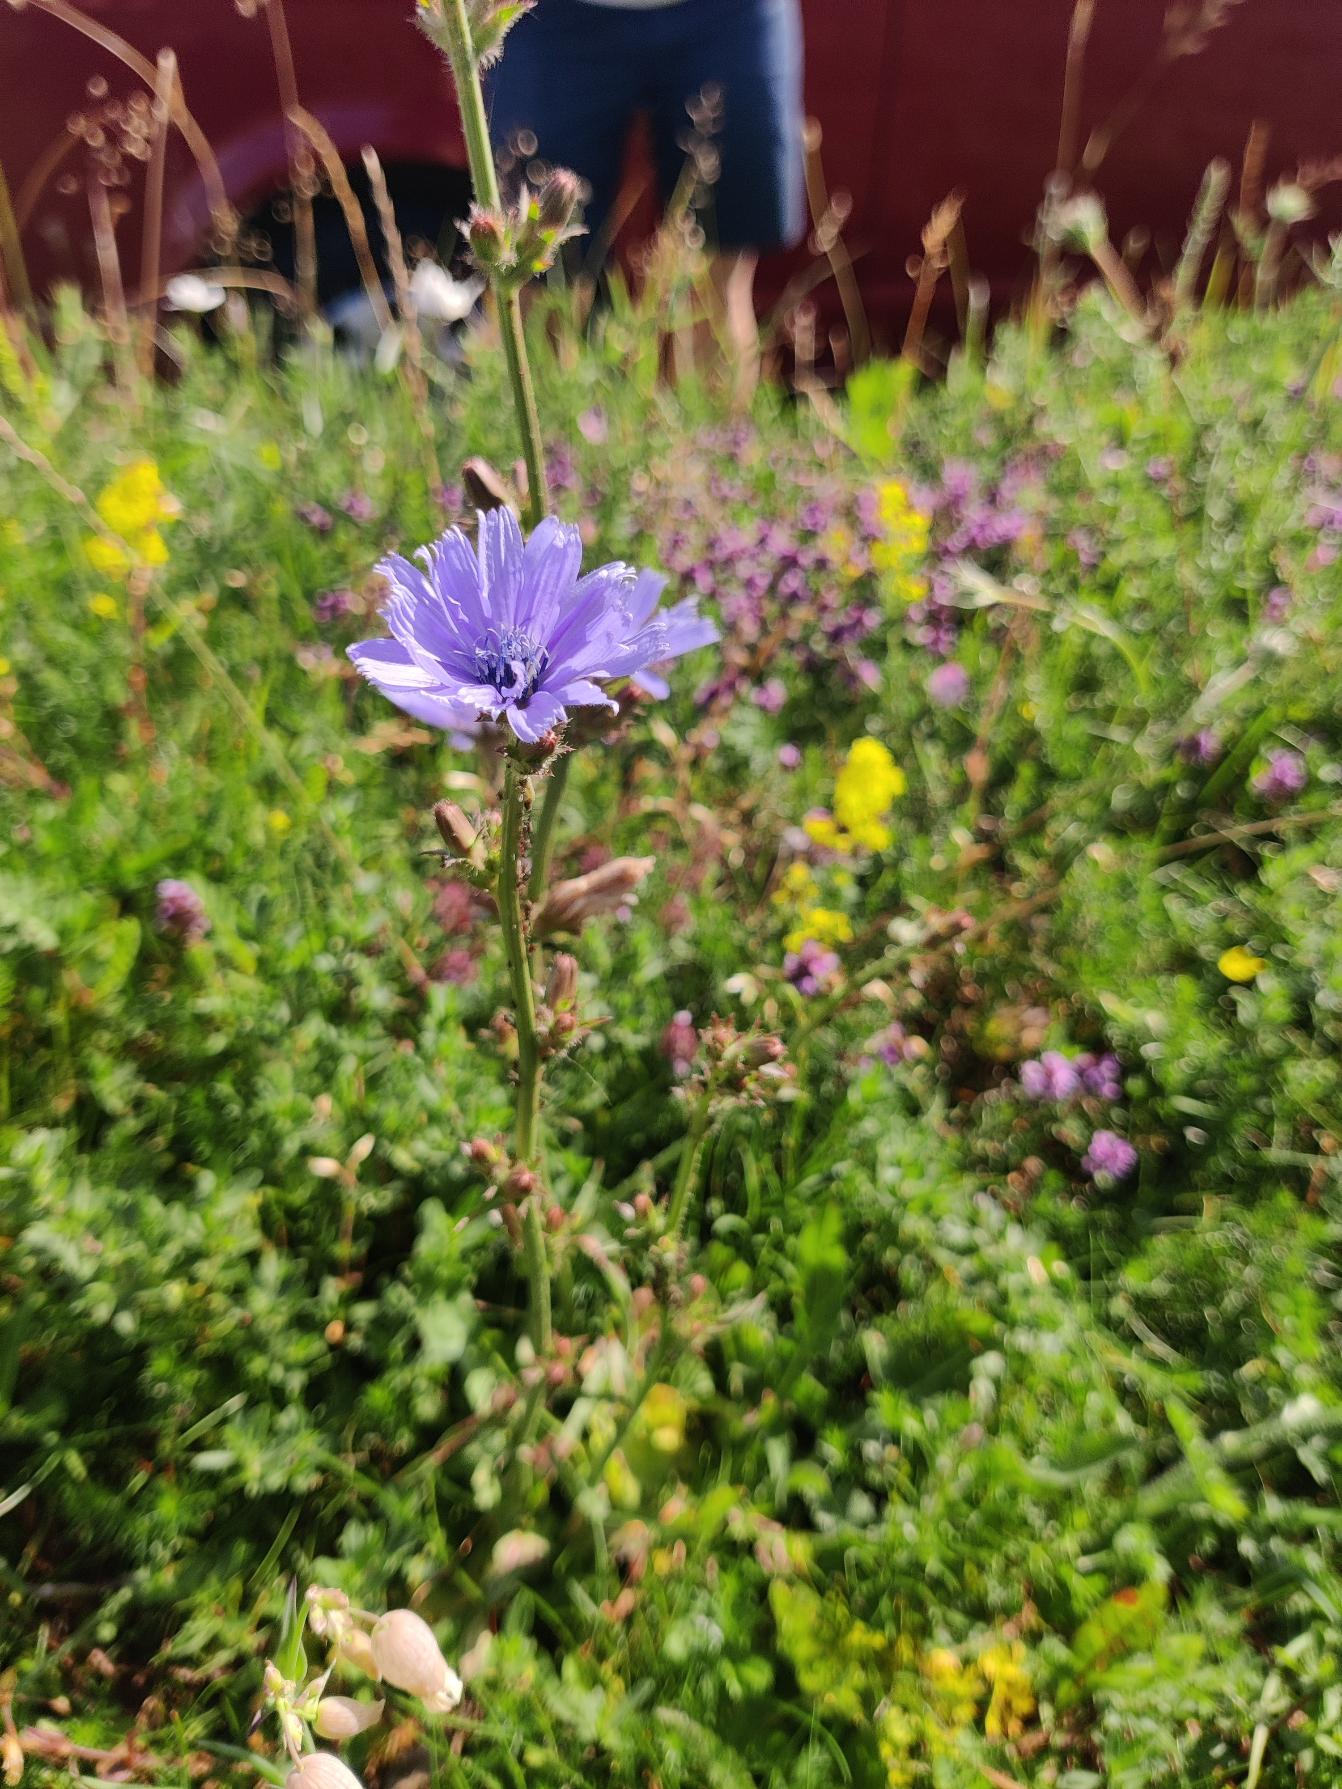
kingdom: Plantae
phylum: Tracheophyta
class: Magnoliopsida
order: Asterales
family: Asteraceae
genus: Cichorium
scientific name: Cichorium intybus
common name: Cikorie
